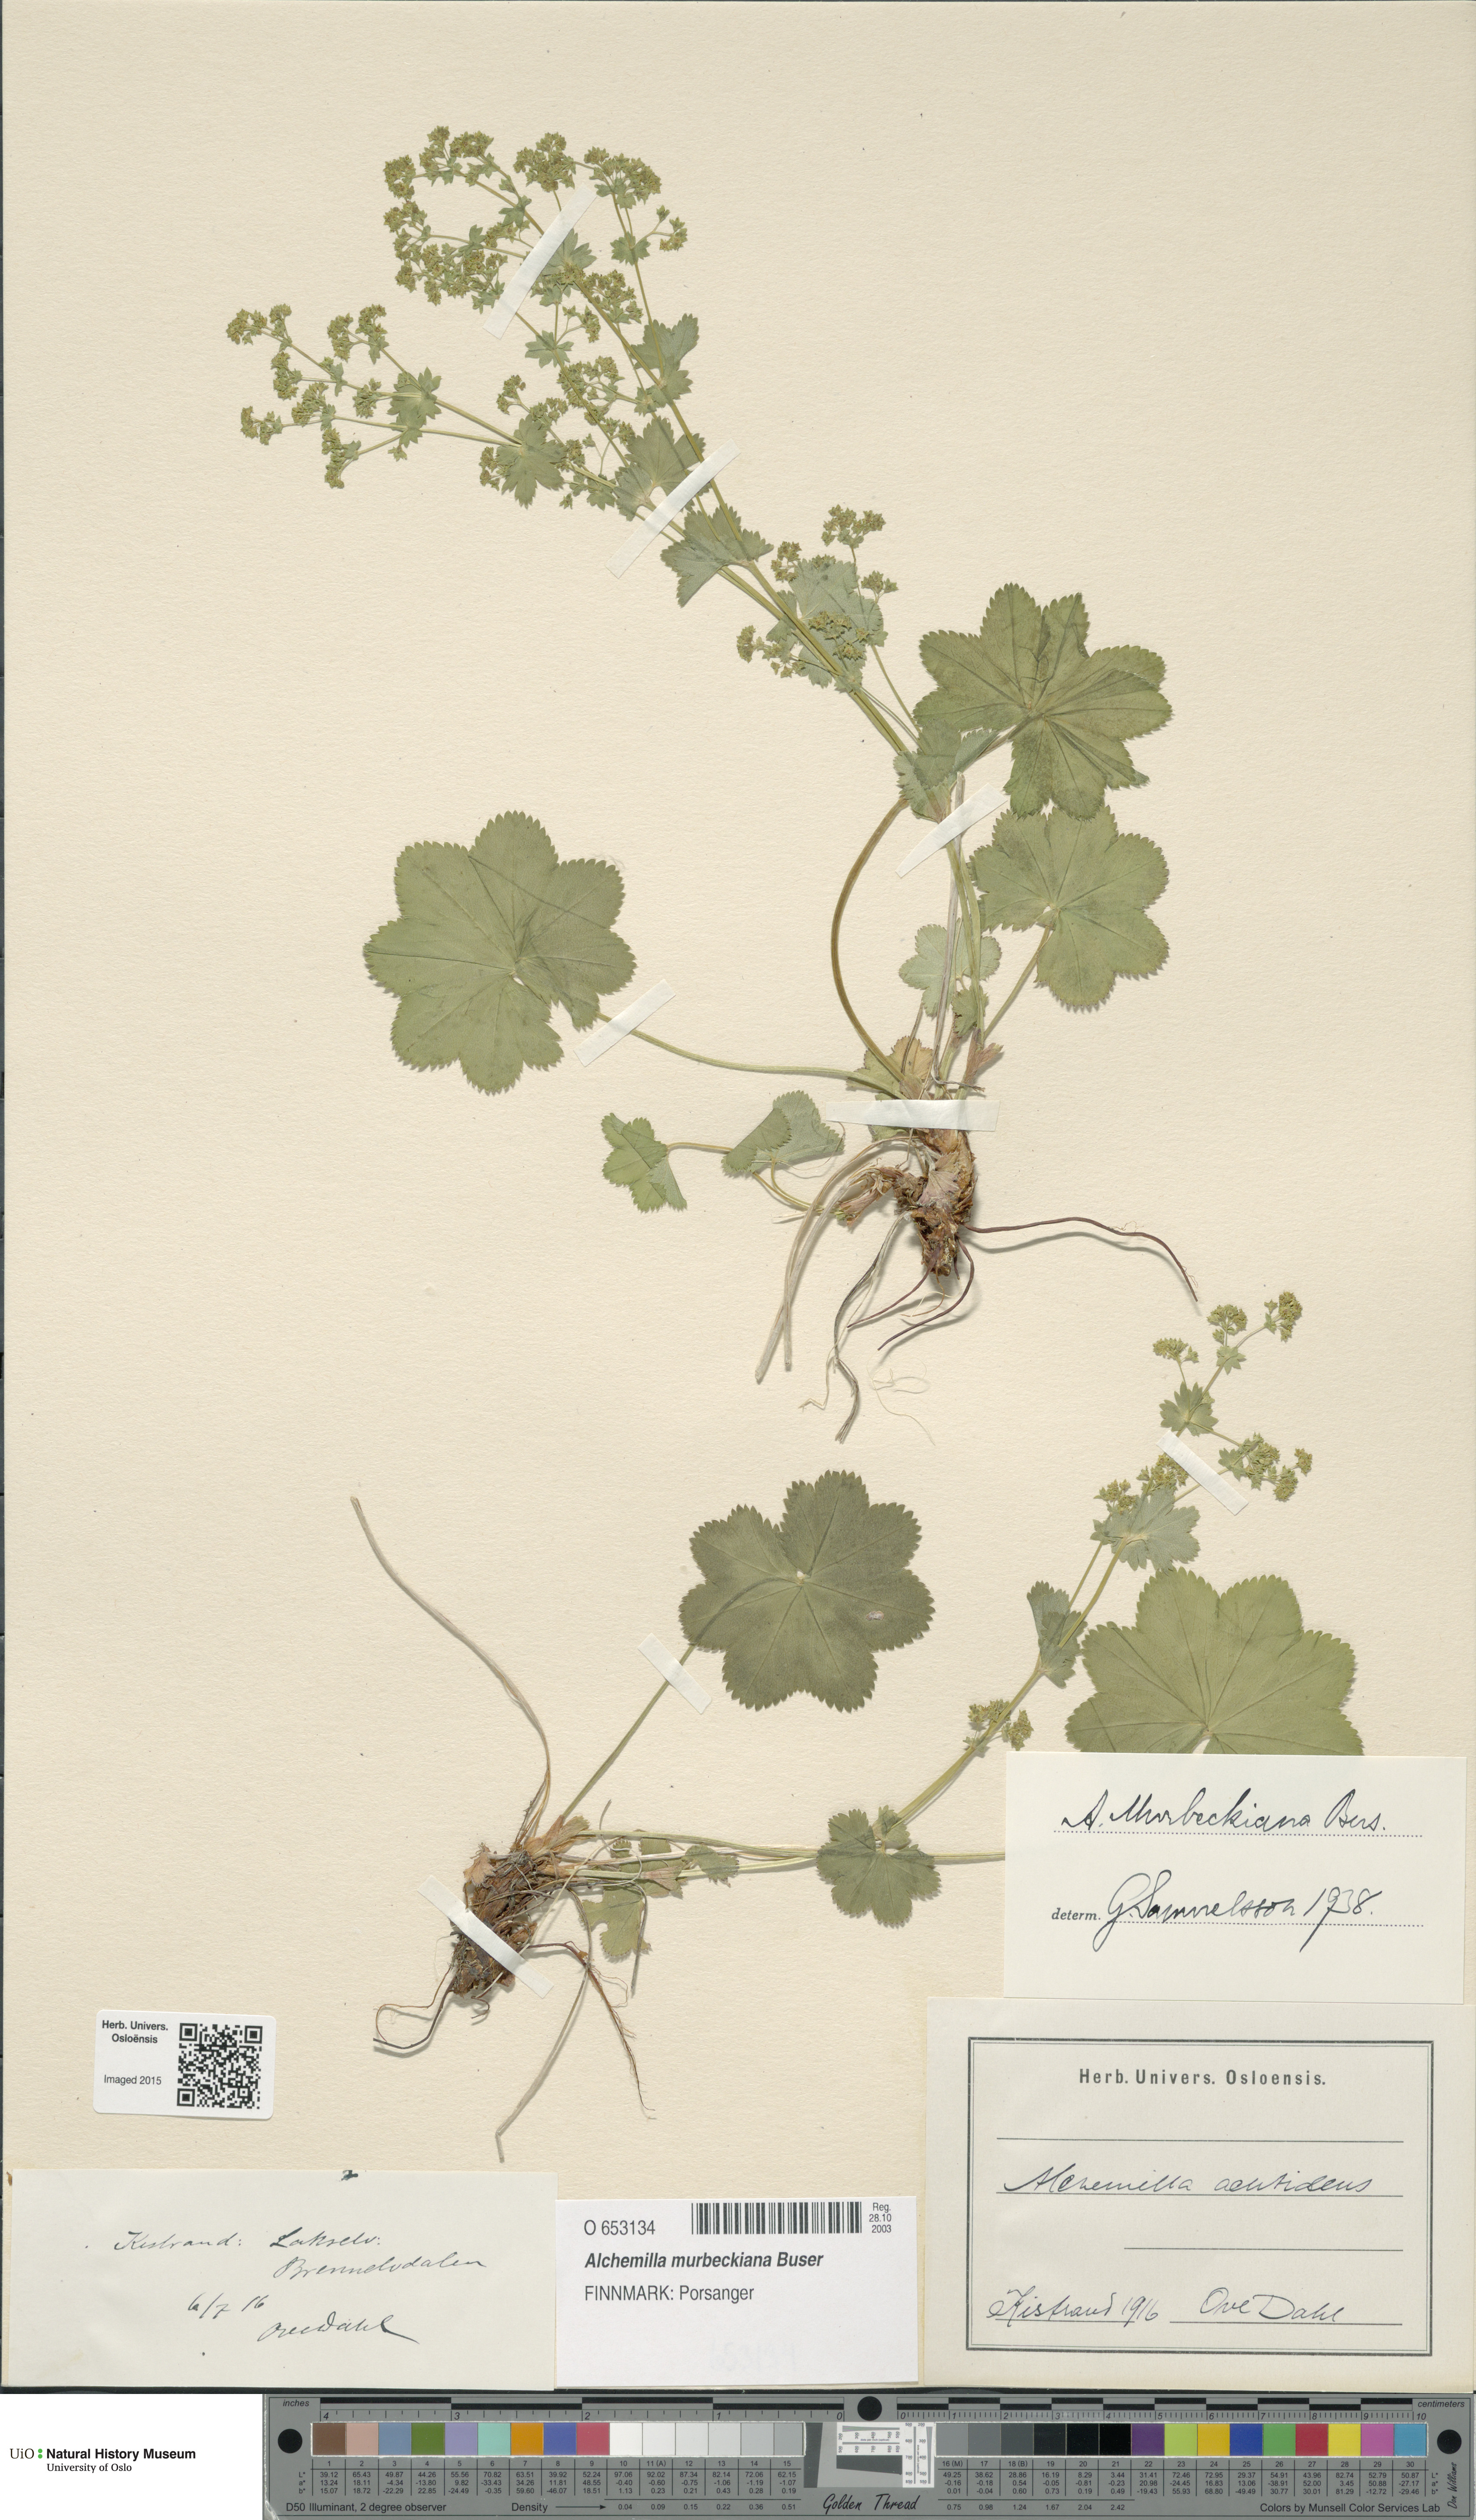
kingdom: Plantae
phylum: Tracheophyta
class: Magnoliopsida
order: Rosales
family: Rosaceae
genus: Alchemilla
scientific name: Alchemilla murbeckiana
